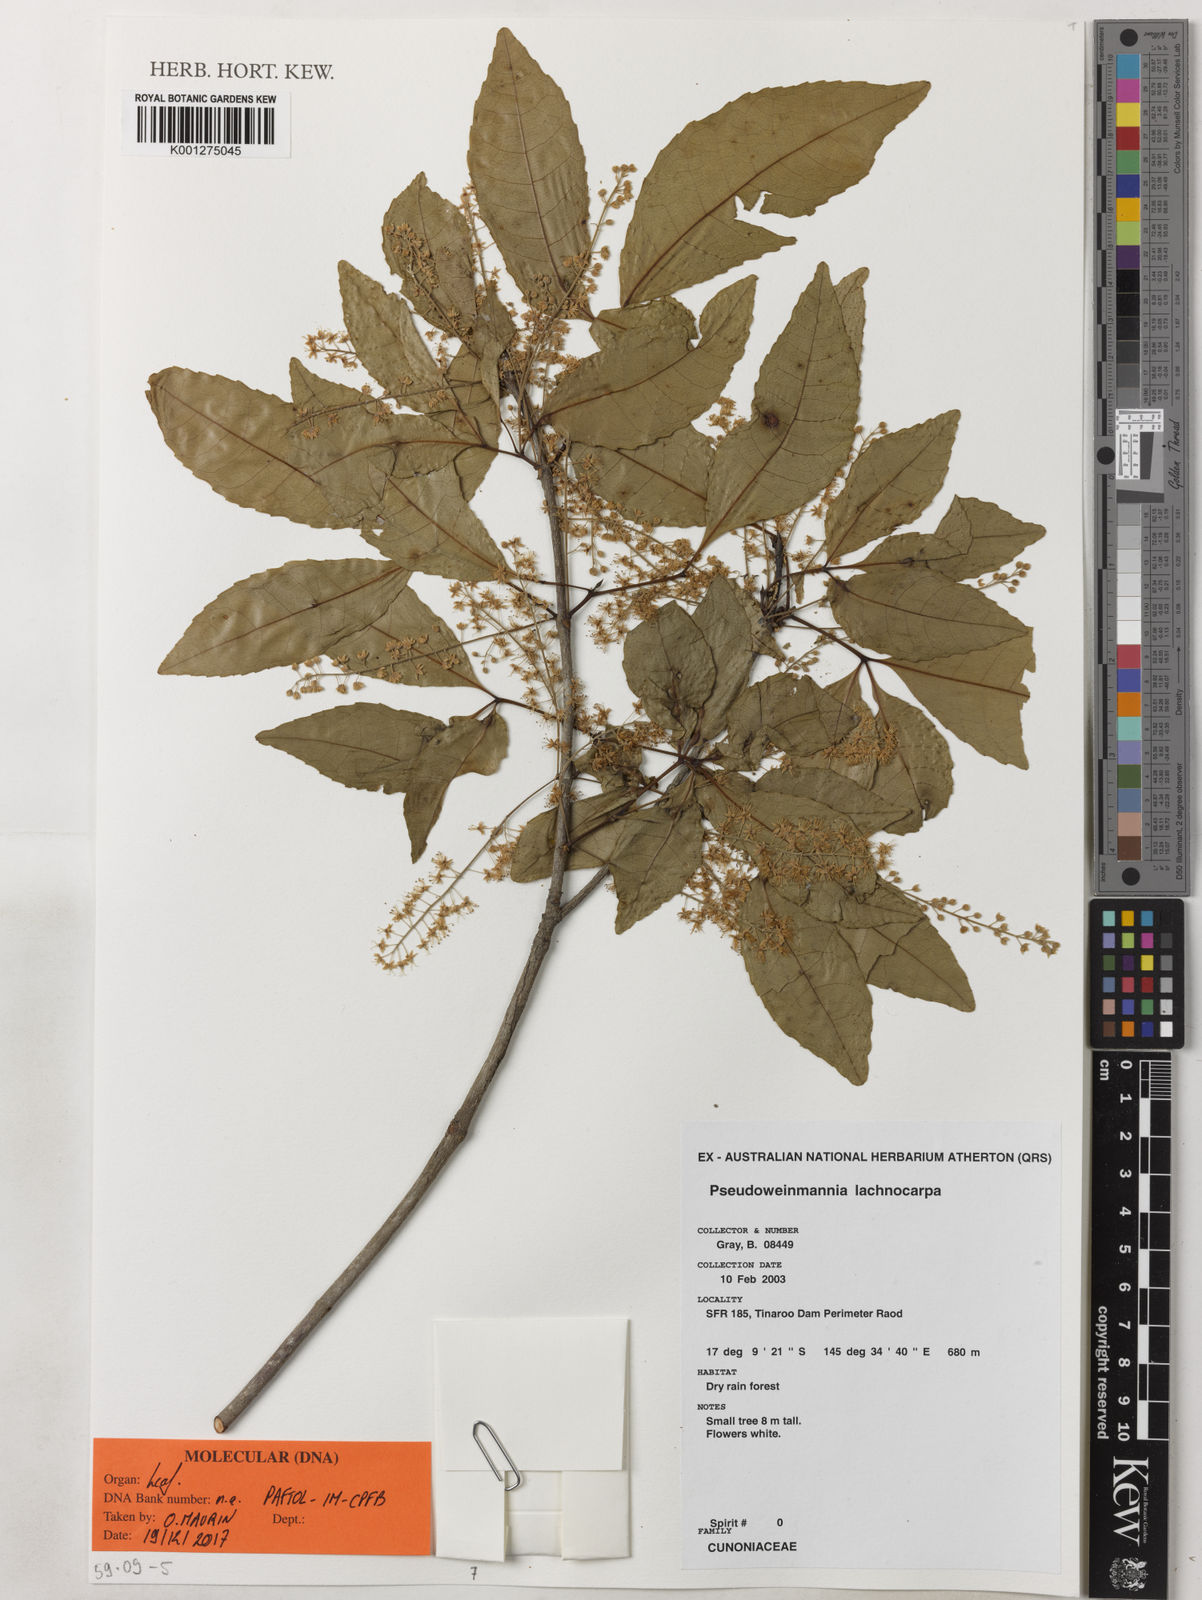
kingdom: Plantae
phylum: Tracheophyta
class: Magnoliopsida
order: Oxalidales
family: Cunoniaceae
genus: Pseudoweinmannia
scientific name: Pseudoweinmannia lachnocarpa
